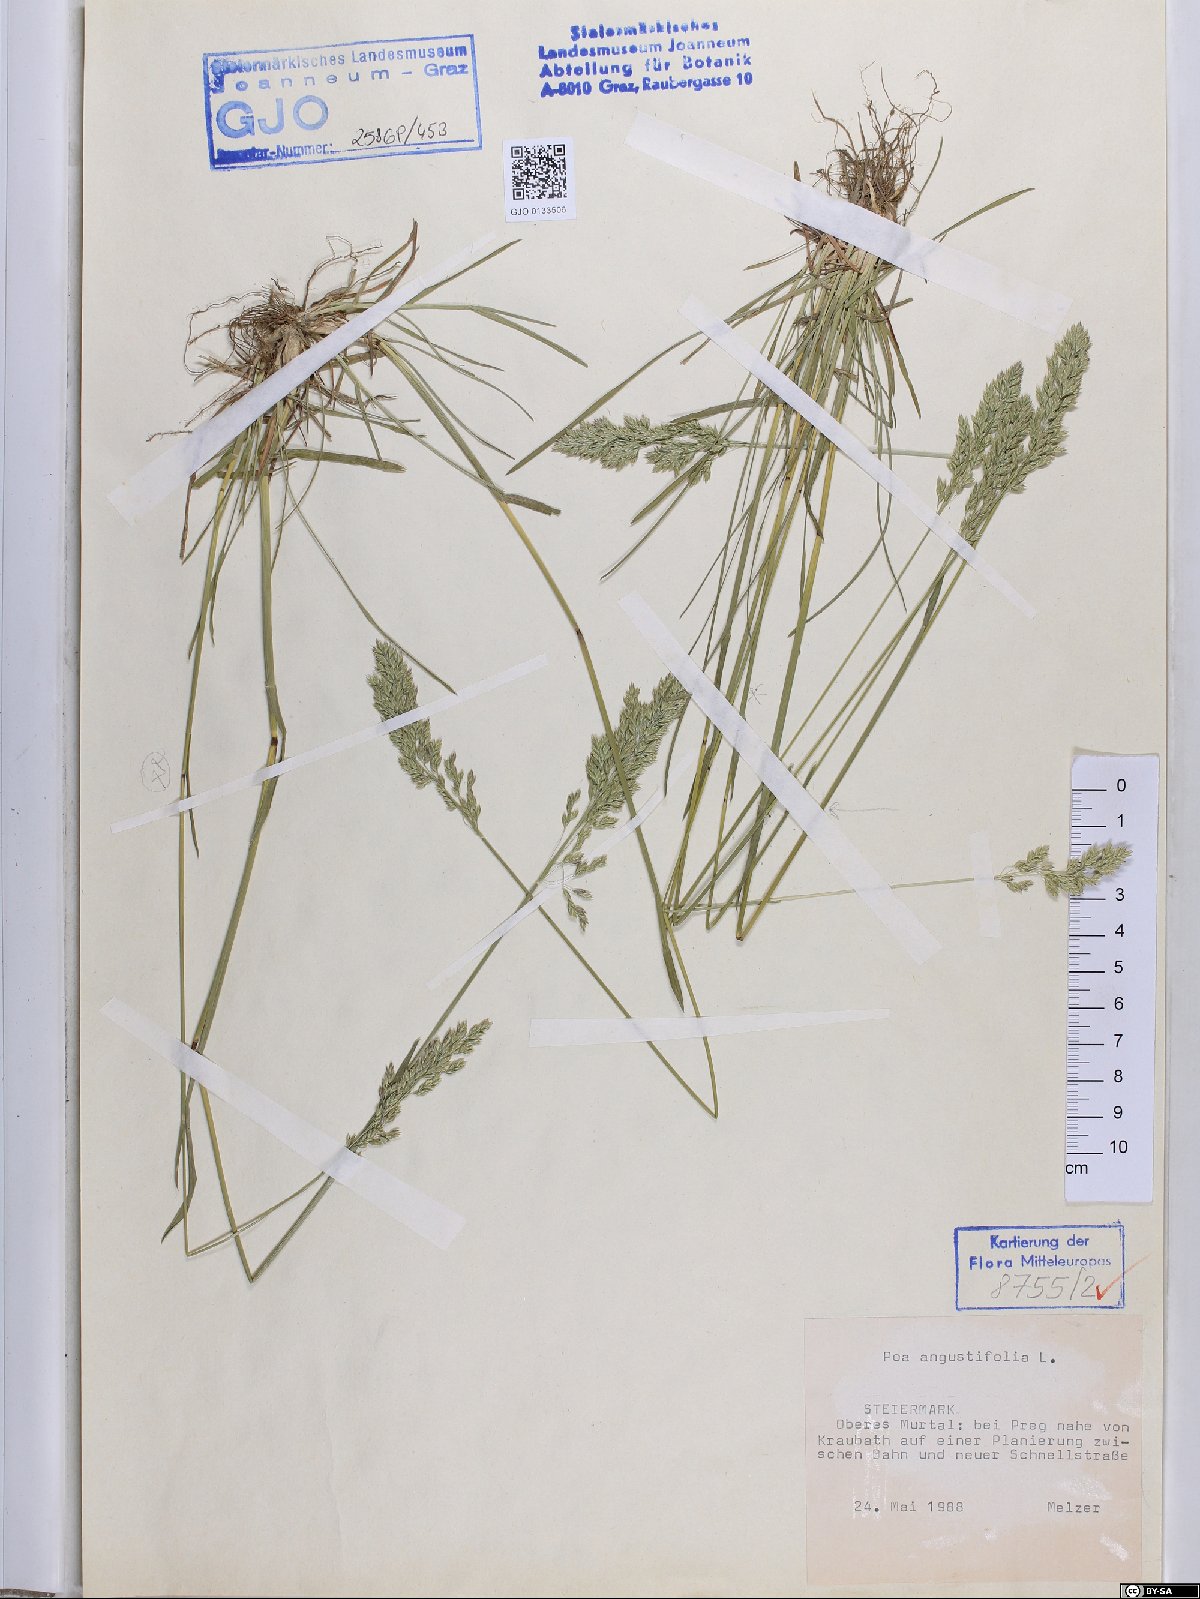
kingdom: Plantae
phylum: Tracheophyta
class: Liliopsida
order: Poales
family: Poaceae
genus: Poa
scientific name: Poa angustifolia
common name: Narrow-leaved meadow-grass
